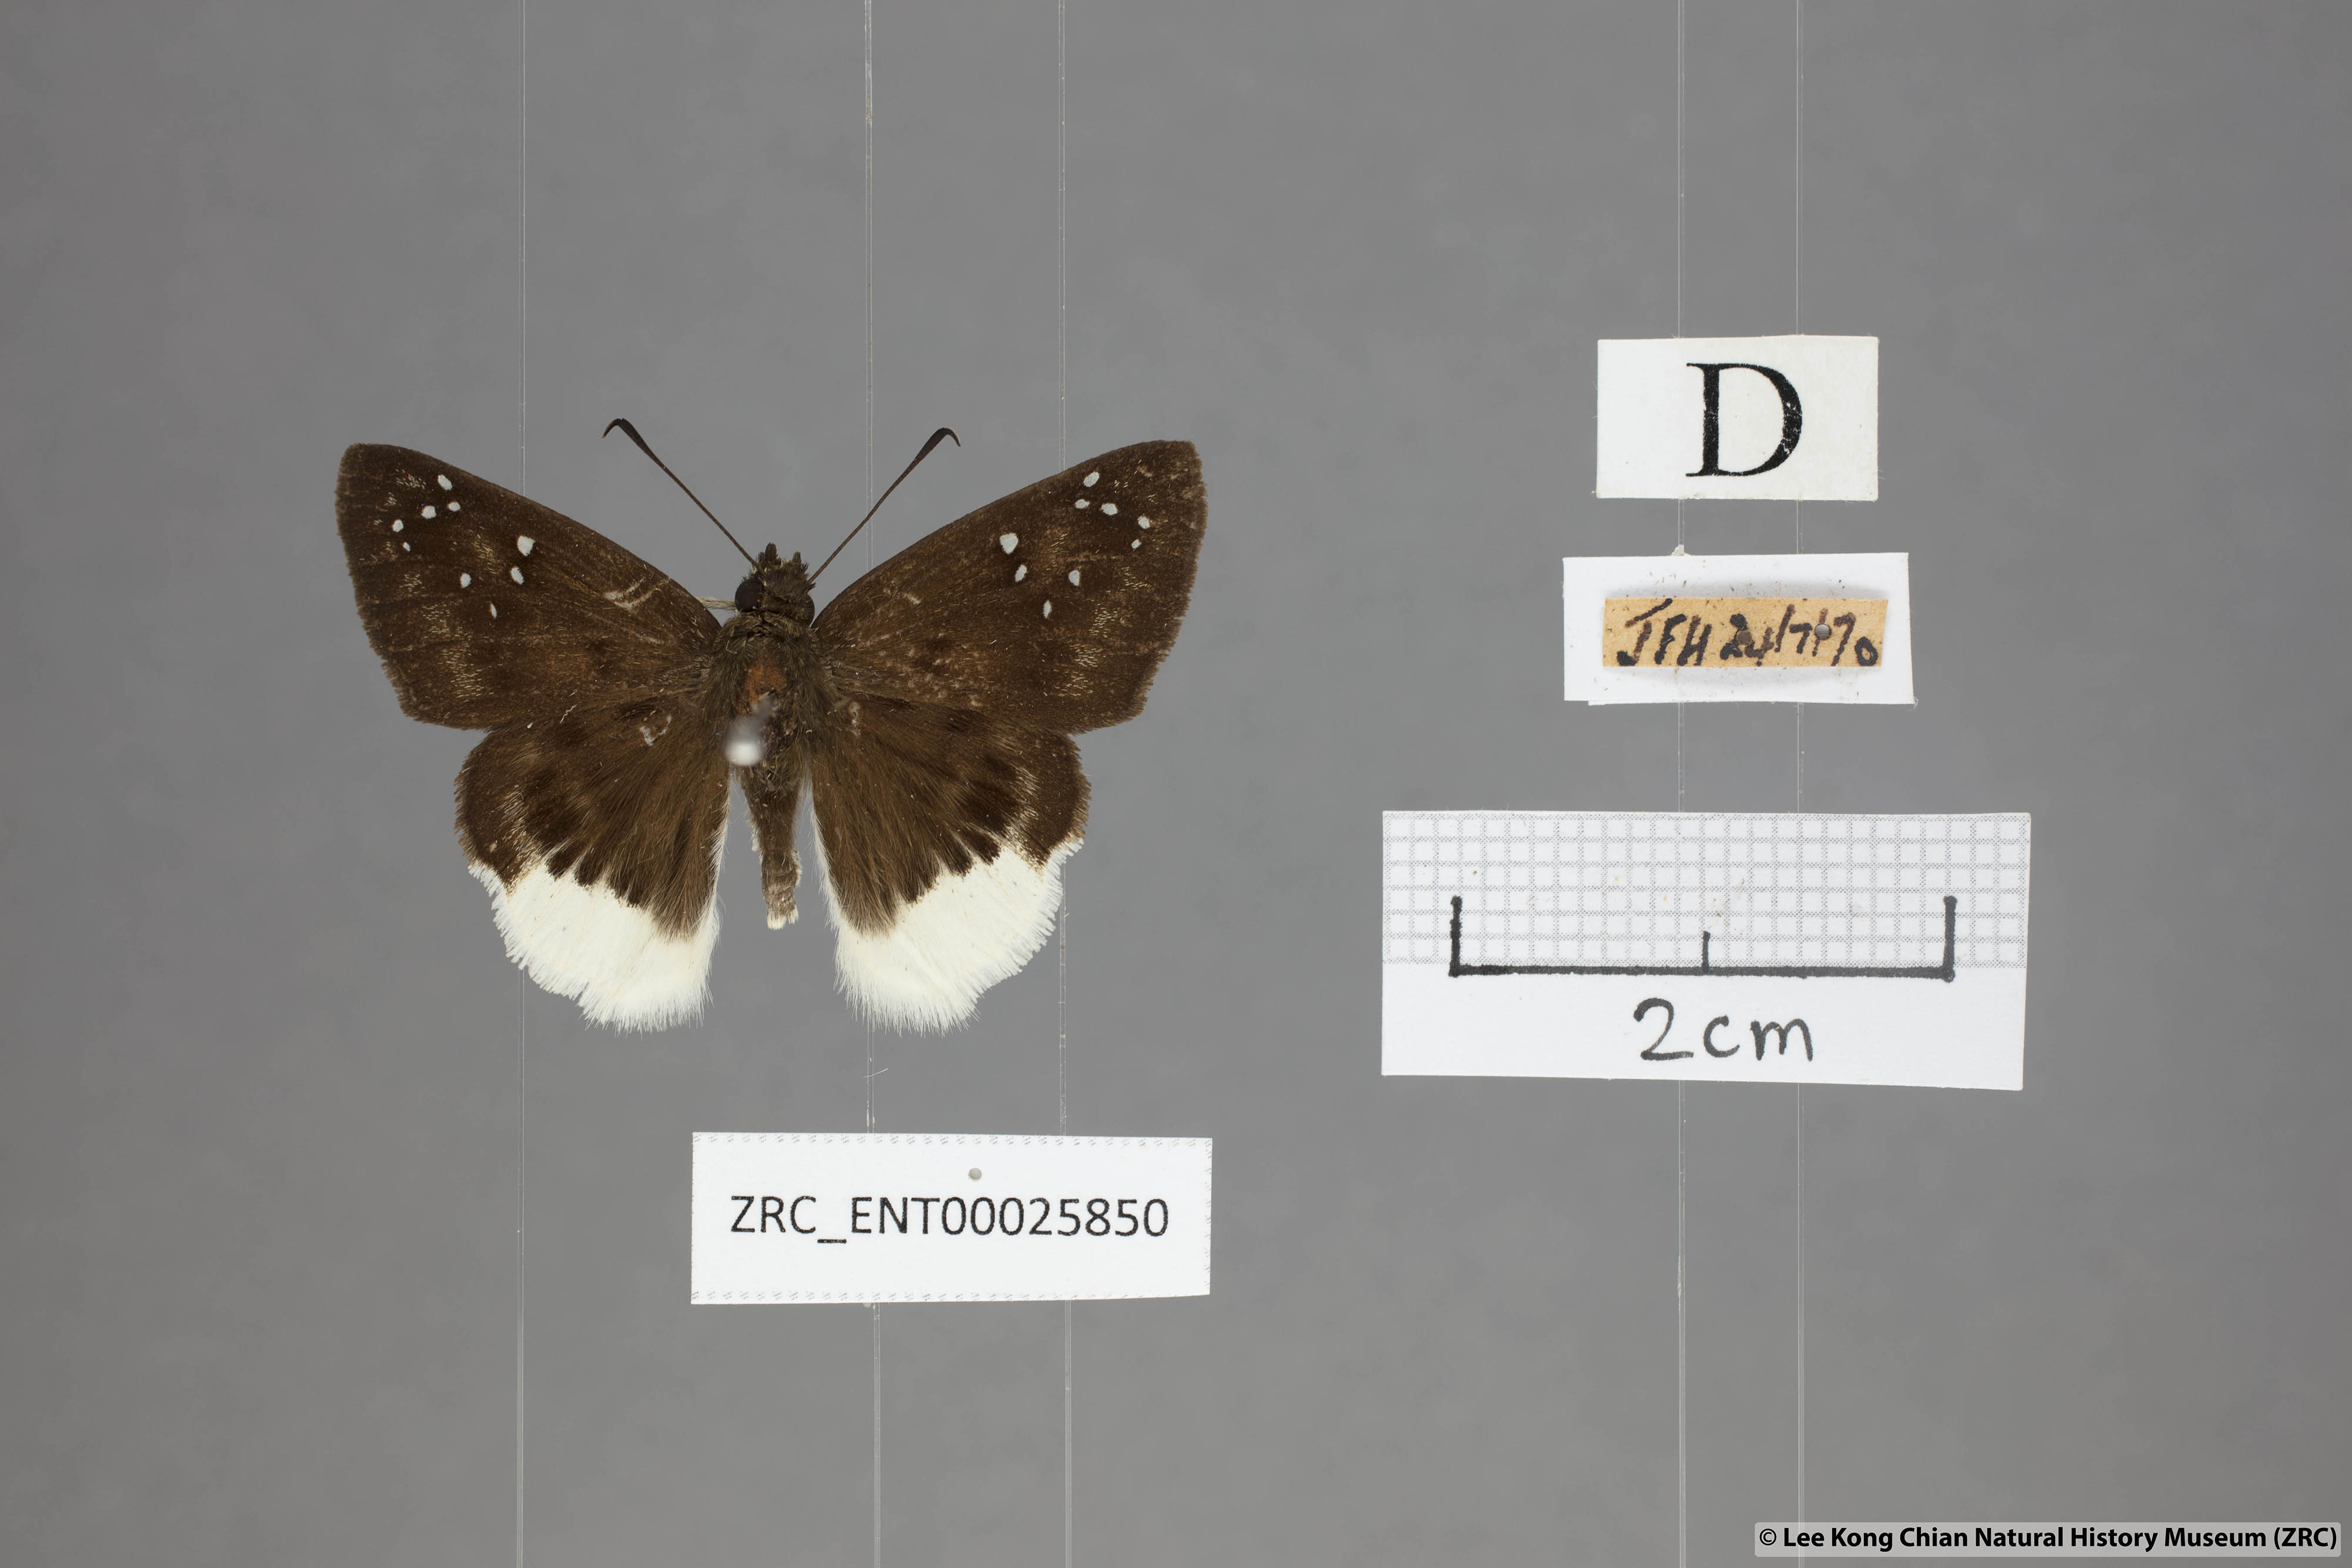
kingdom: Animalia
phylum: Arthropoda
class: Insecta
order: Lepidoptera
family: Hesperiidae
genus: Darpa
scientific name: Darpa pterica
